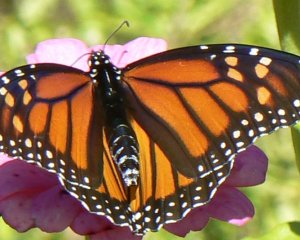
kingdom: Animalia
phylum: Arthropoda
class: Insecta
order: Lepidoptera
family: Nymphalidae
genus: Danaus
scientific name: Danaus plexippus
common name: Monarch
